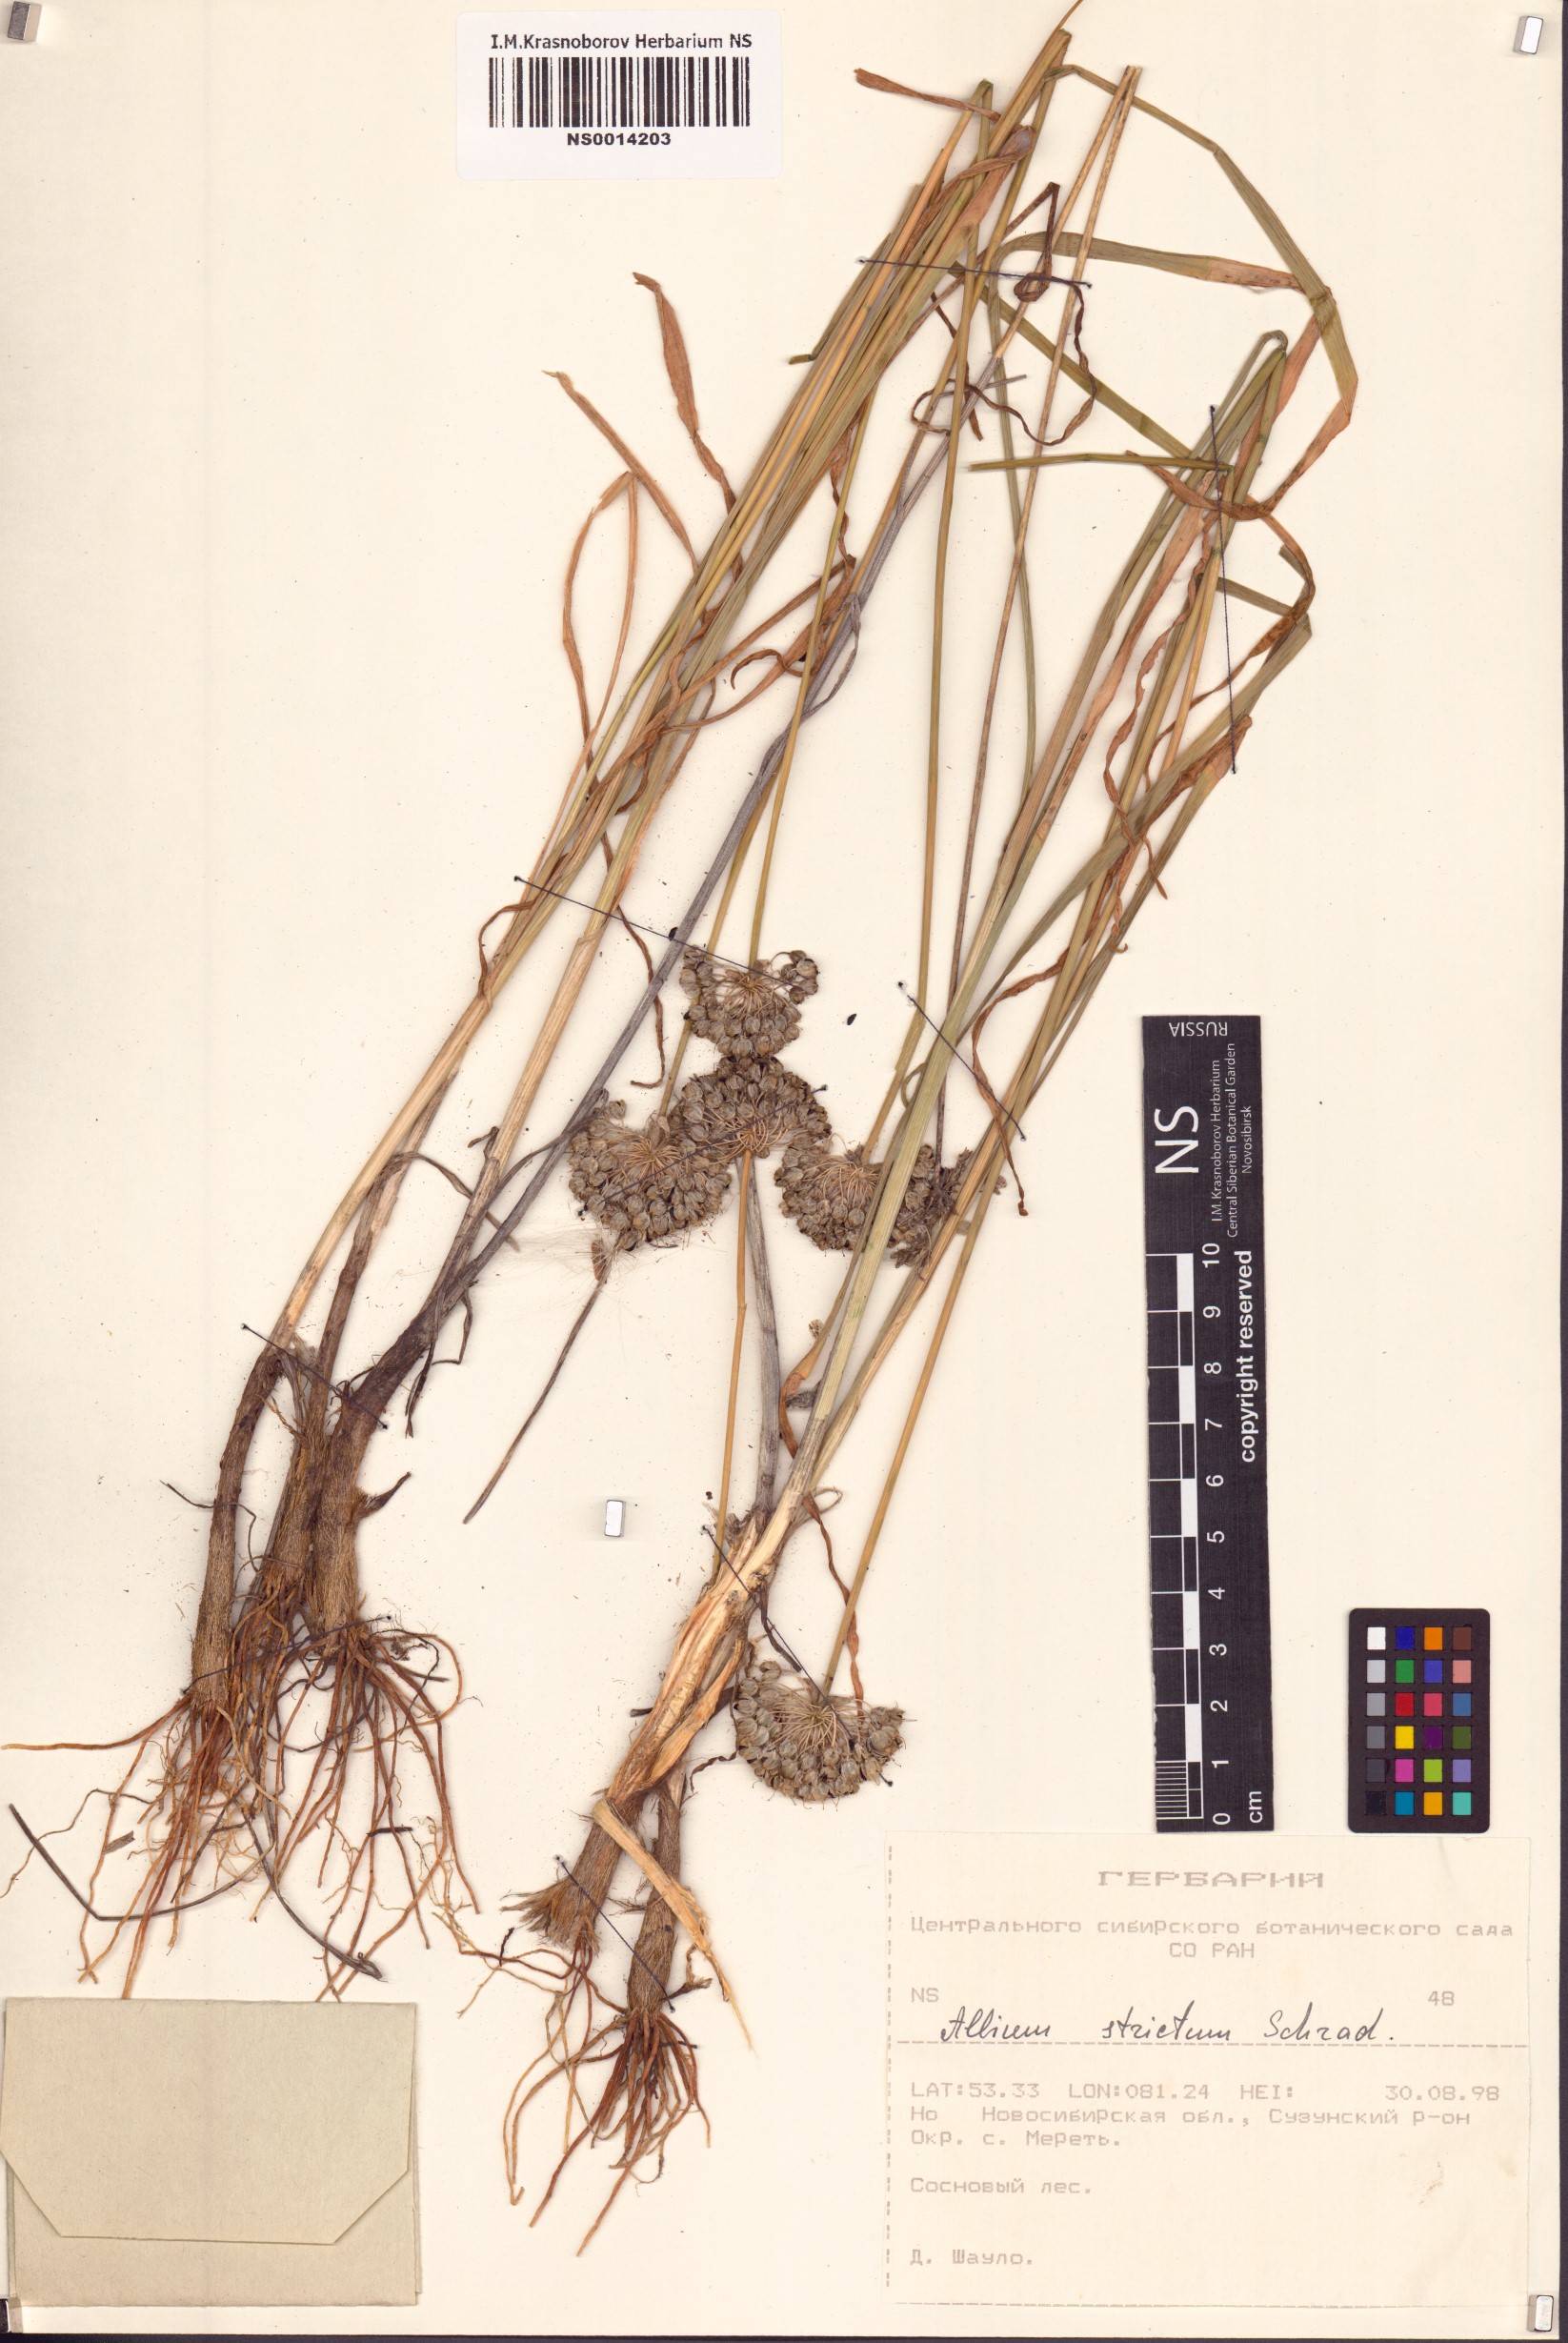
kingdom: Plantae
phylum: Tracheophyta
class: Liliopsida
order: Asparagales
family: Amaryllidaceae
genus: Allium
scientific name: Allium strictum
